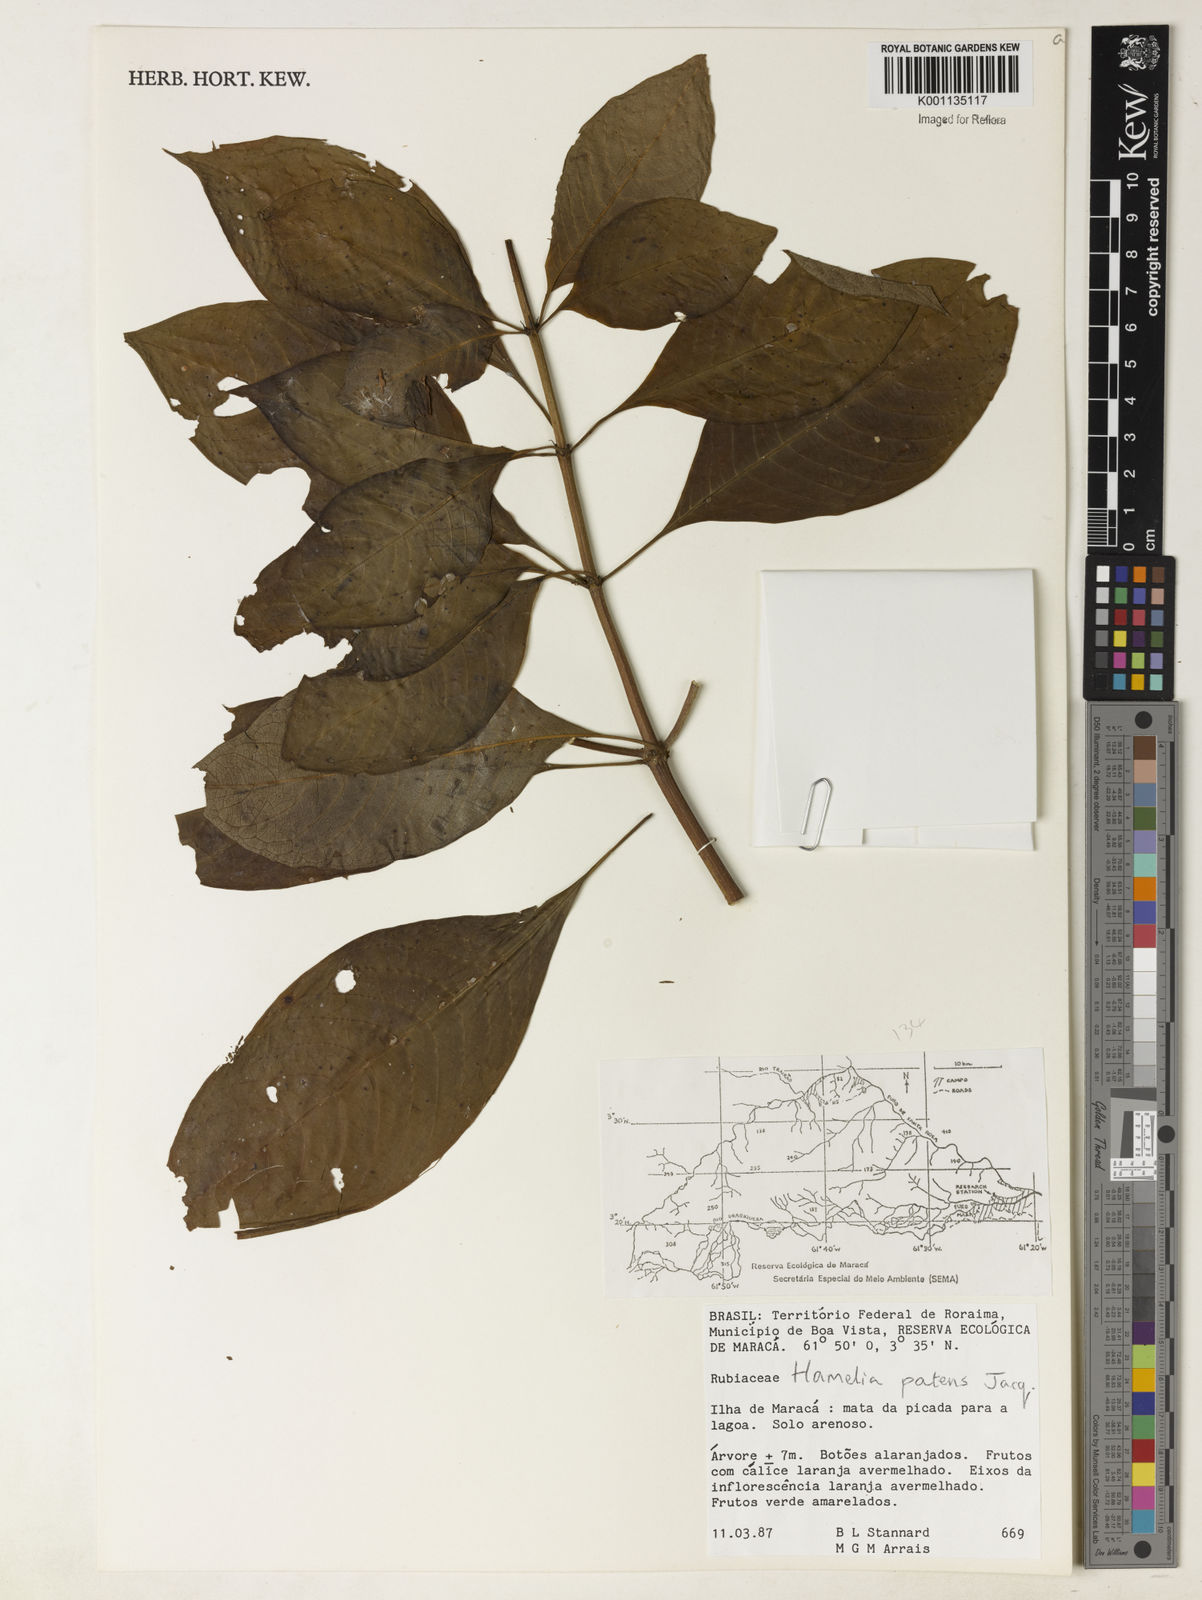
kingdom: Plantae
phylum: Tracheophyta
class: Magnoliopsida
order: Gentianales
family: Rubiaceae
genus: Hamelia
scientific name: Hamelia patens
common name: Redhead
